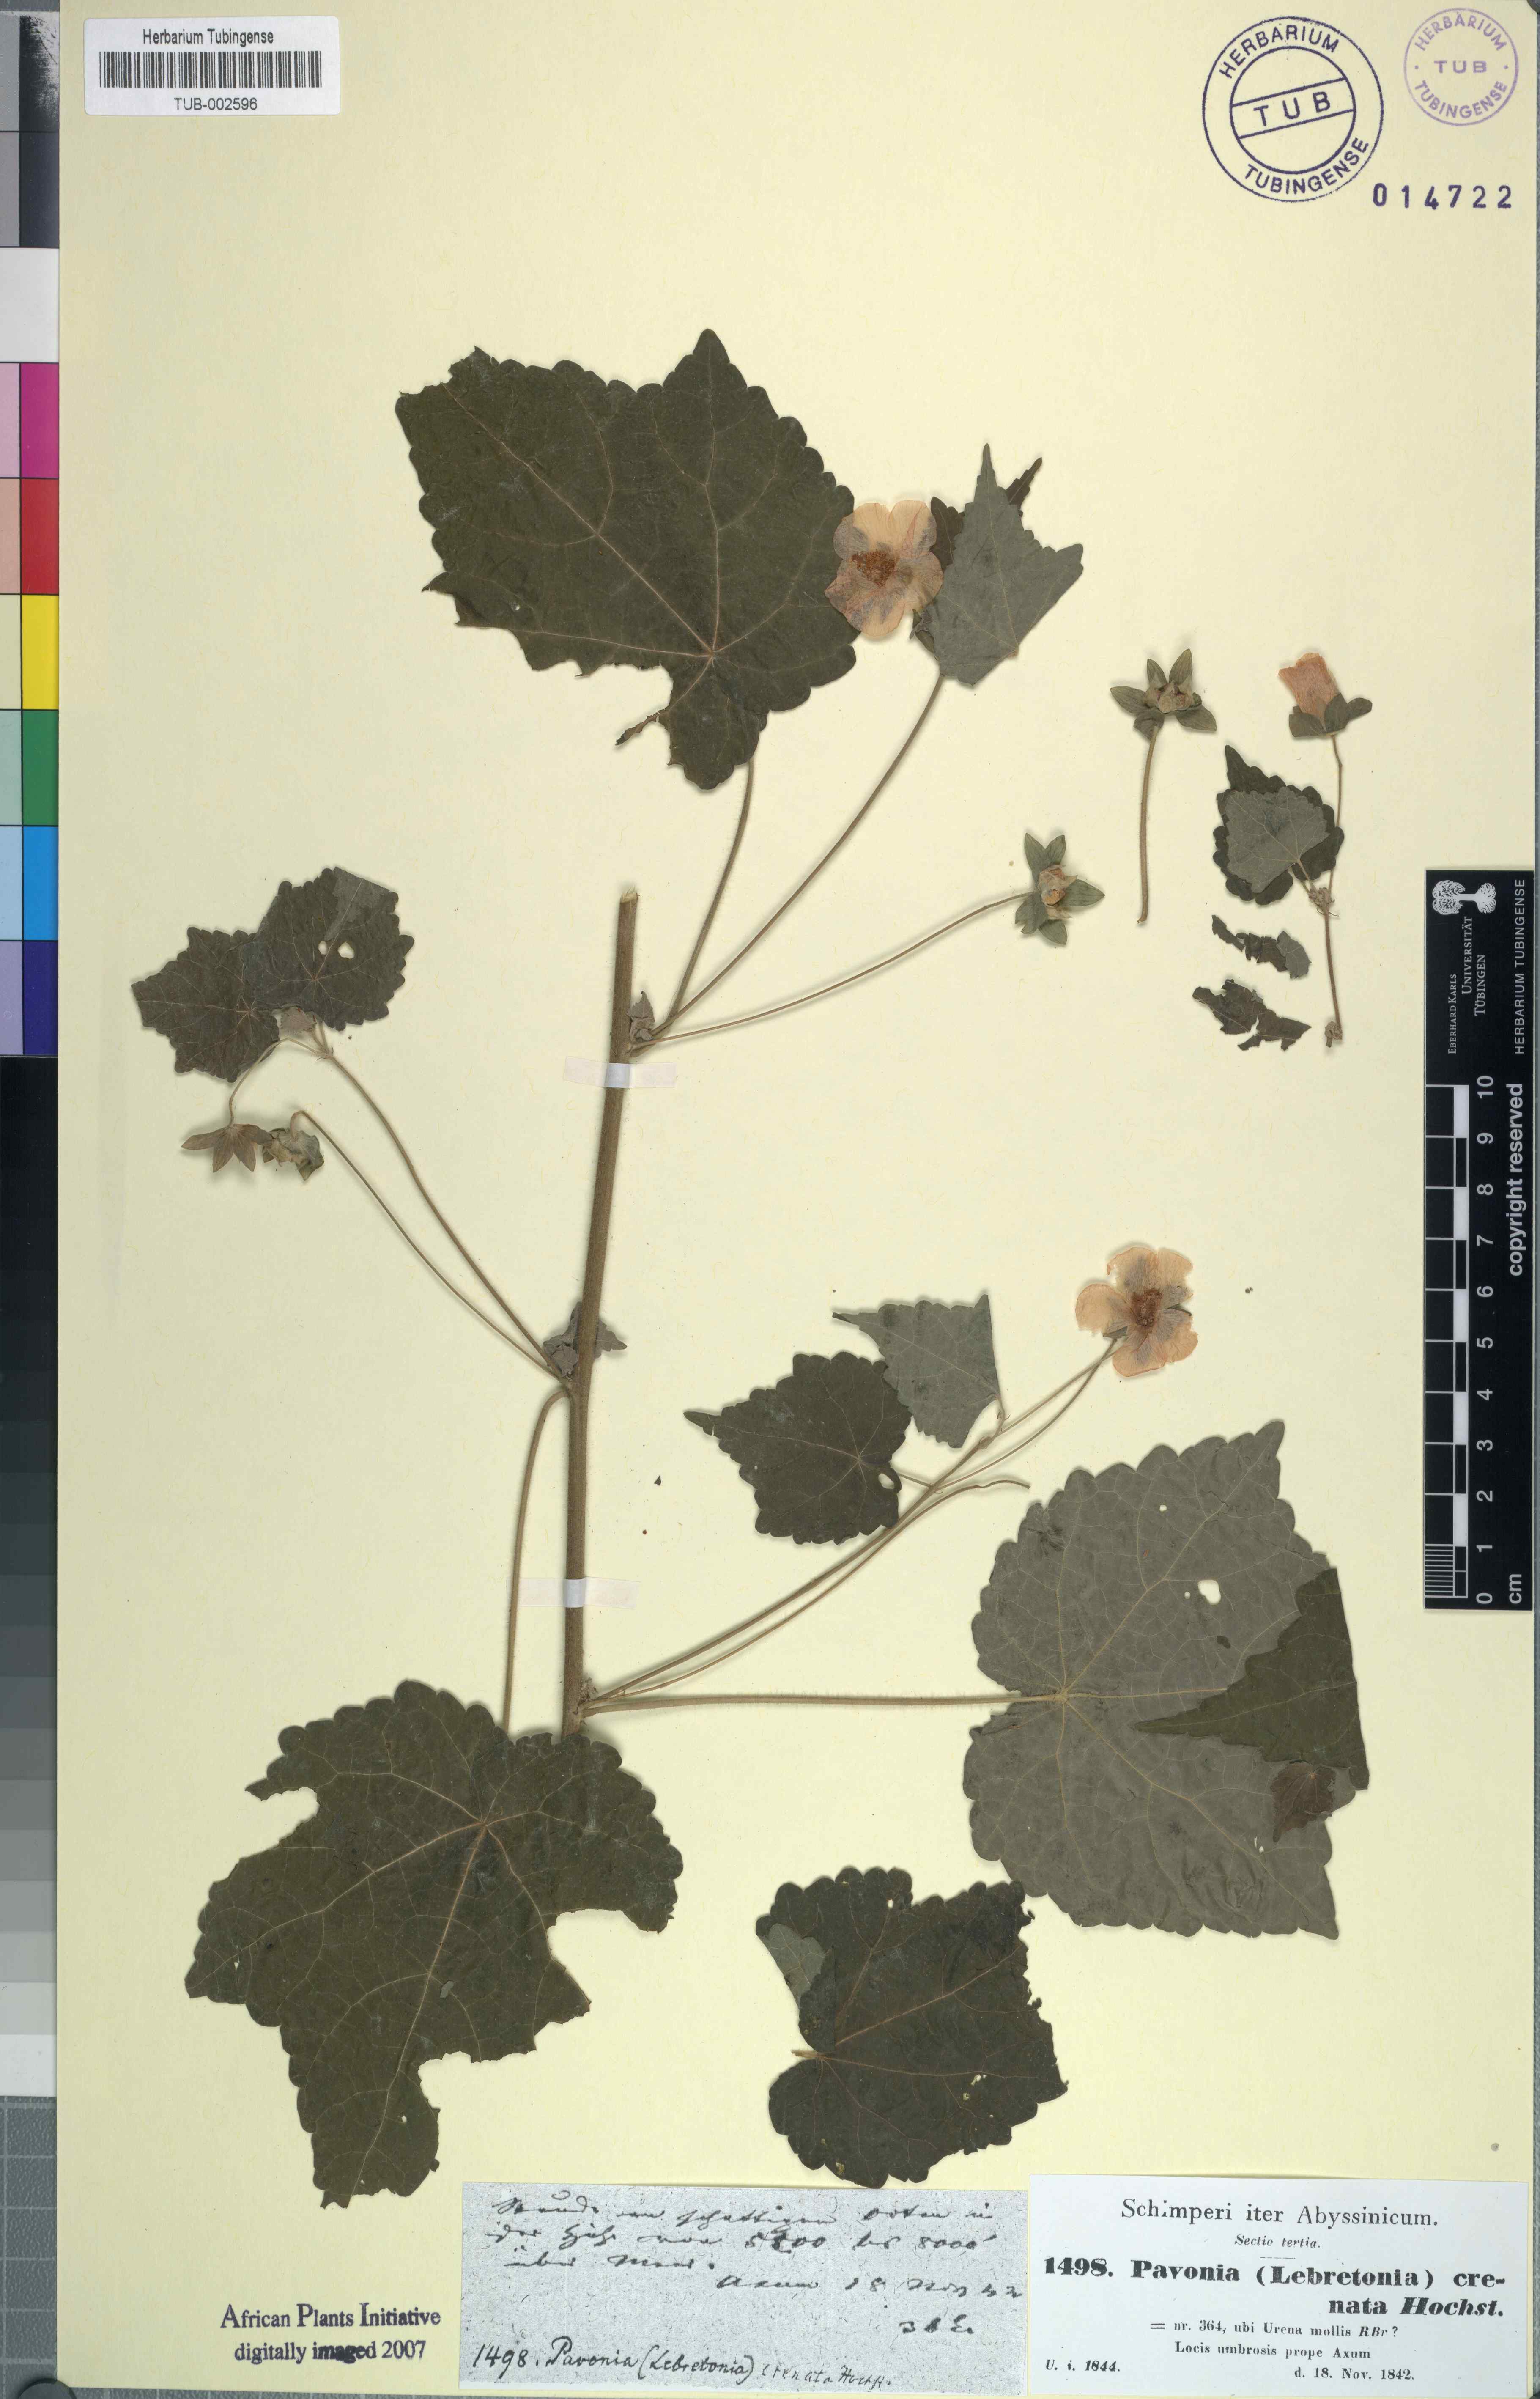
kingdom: Plantae
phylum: Tracheophyta
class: Magnoliopsida
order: Malvales
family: Malvaceae
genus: Pavonia
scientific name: Pavonia burchellii
